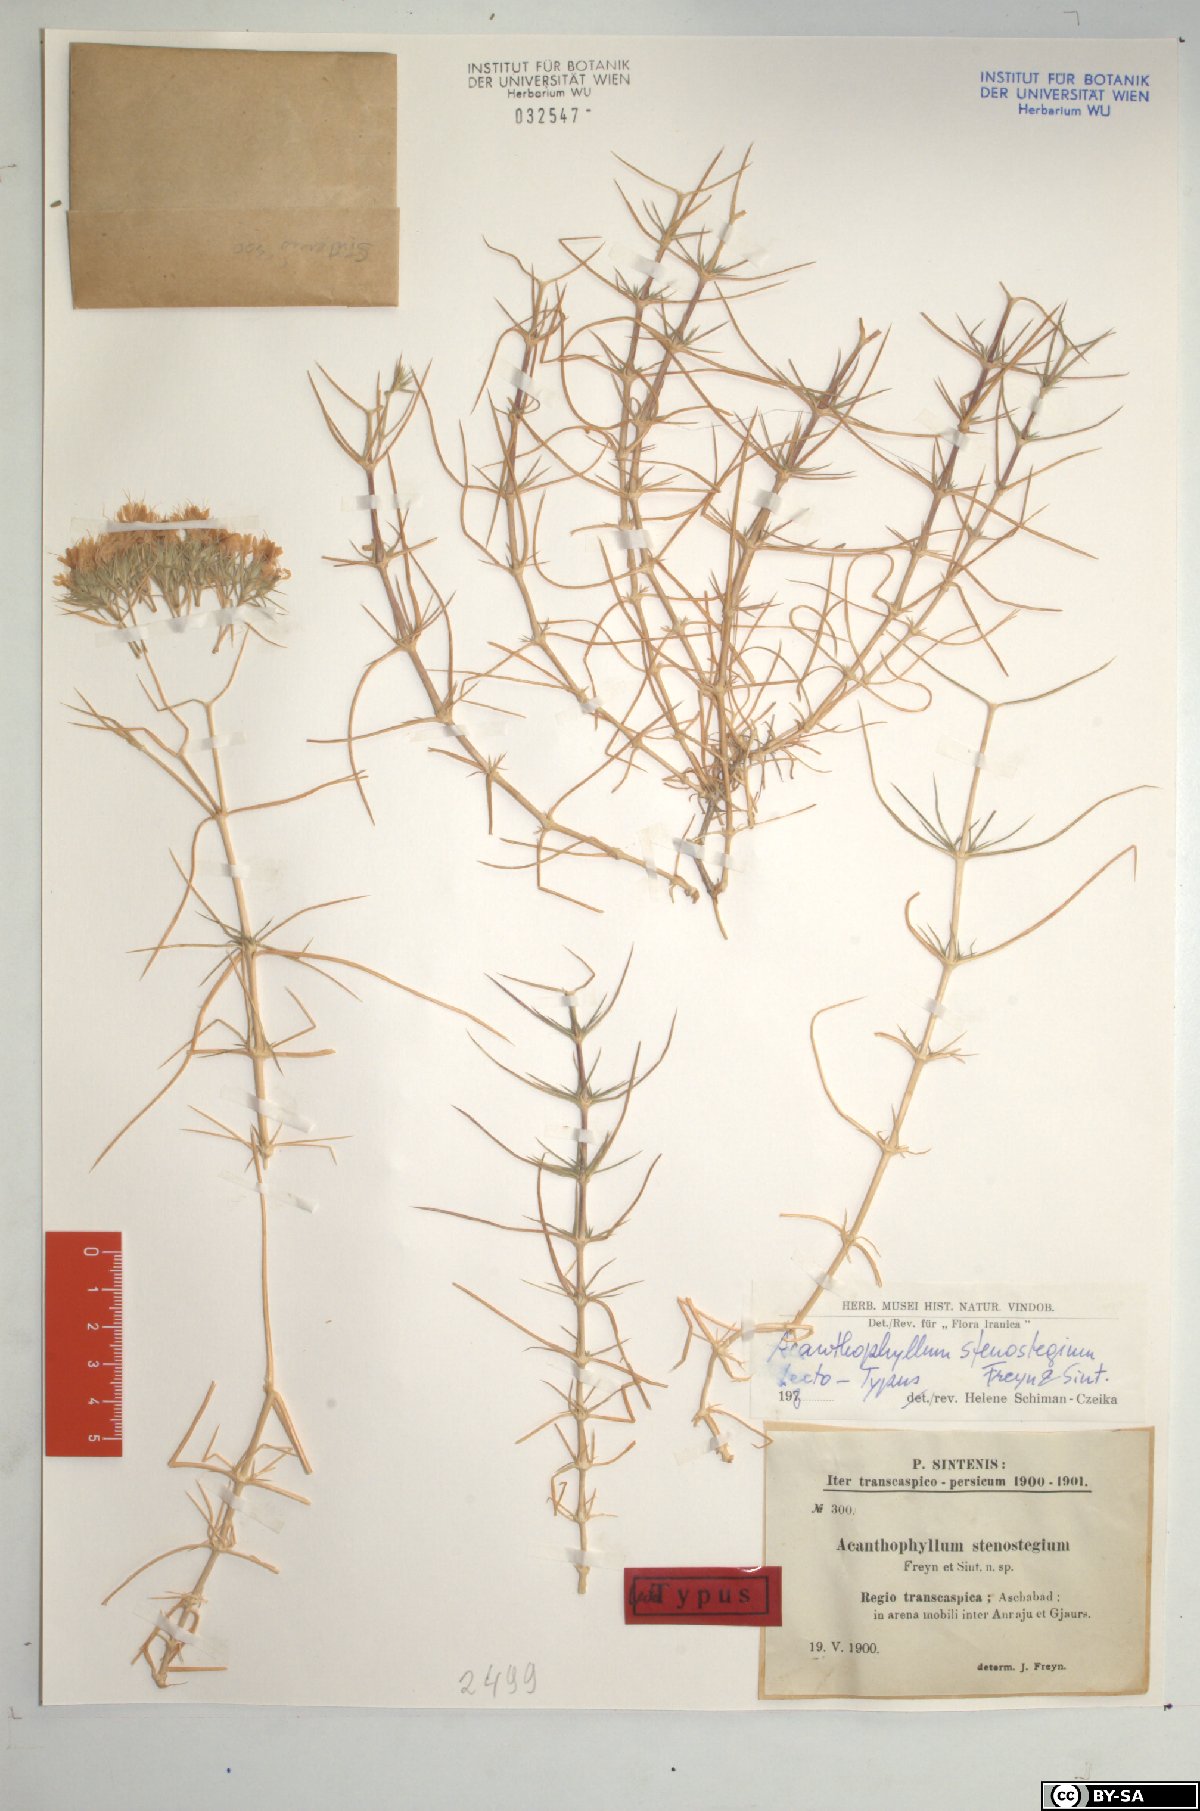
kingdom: Plantae
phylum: Tracheophyta
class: Magnoliopsida
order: Caryophyllales
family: Caryophyllaceae
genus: Acanthophyllum
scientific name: Acanthophyllum stenostegium
